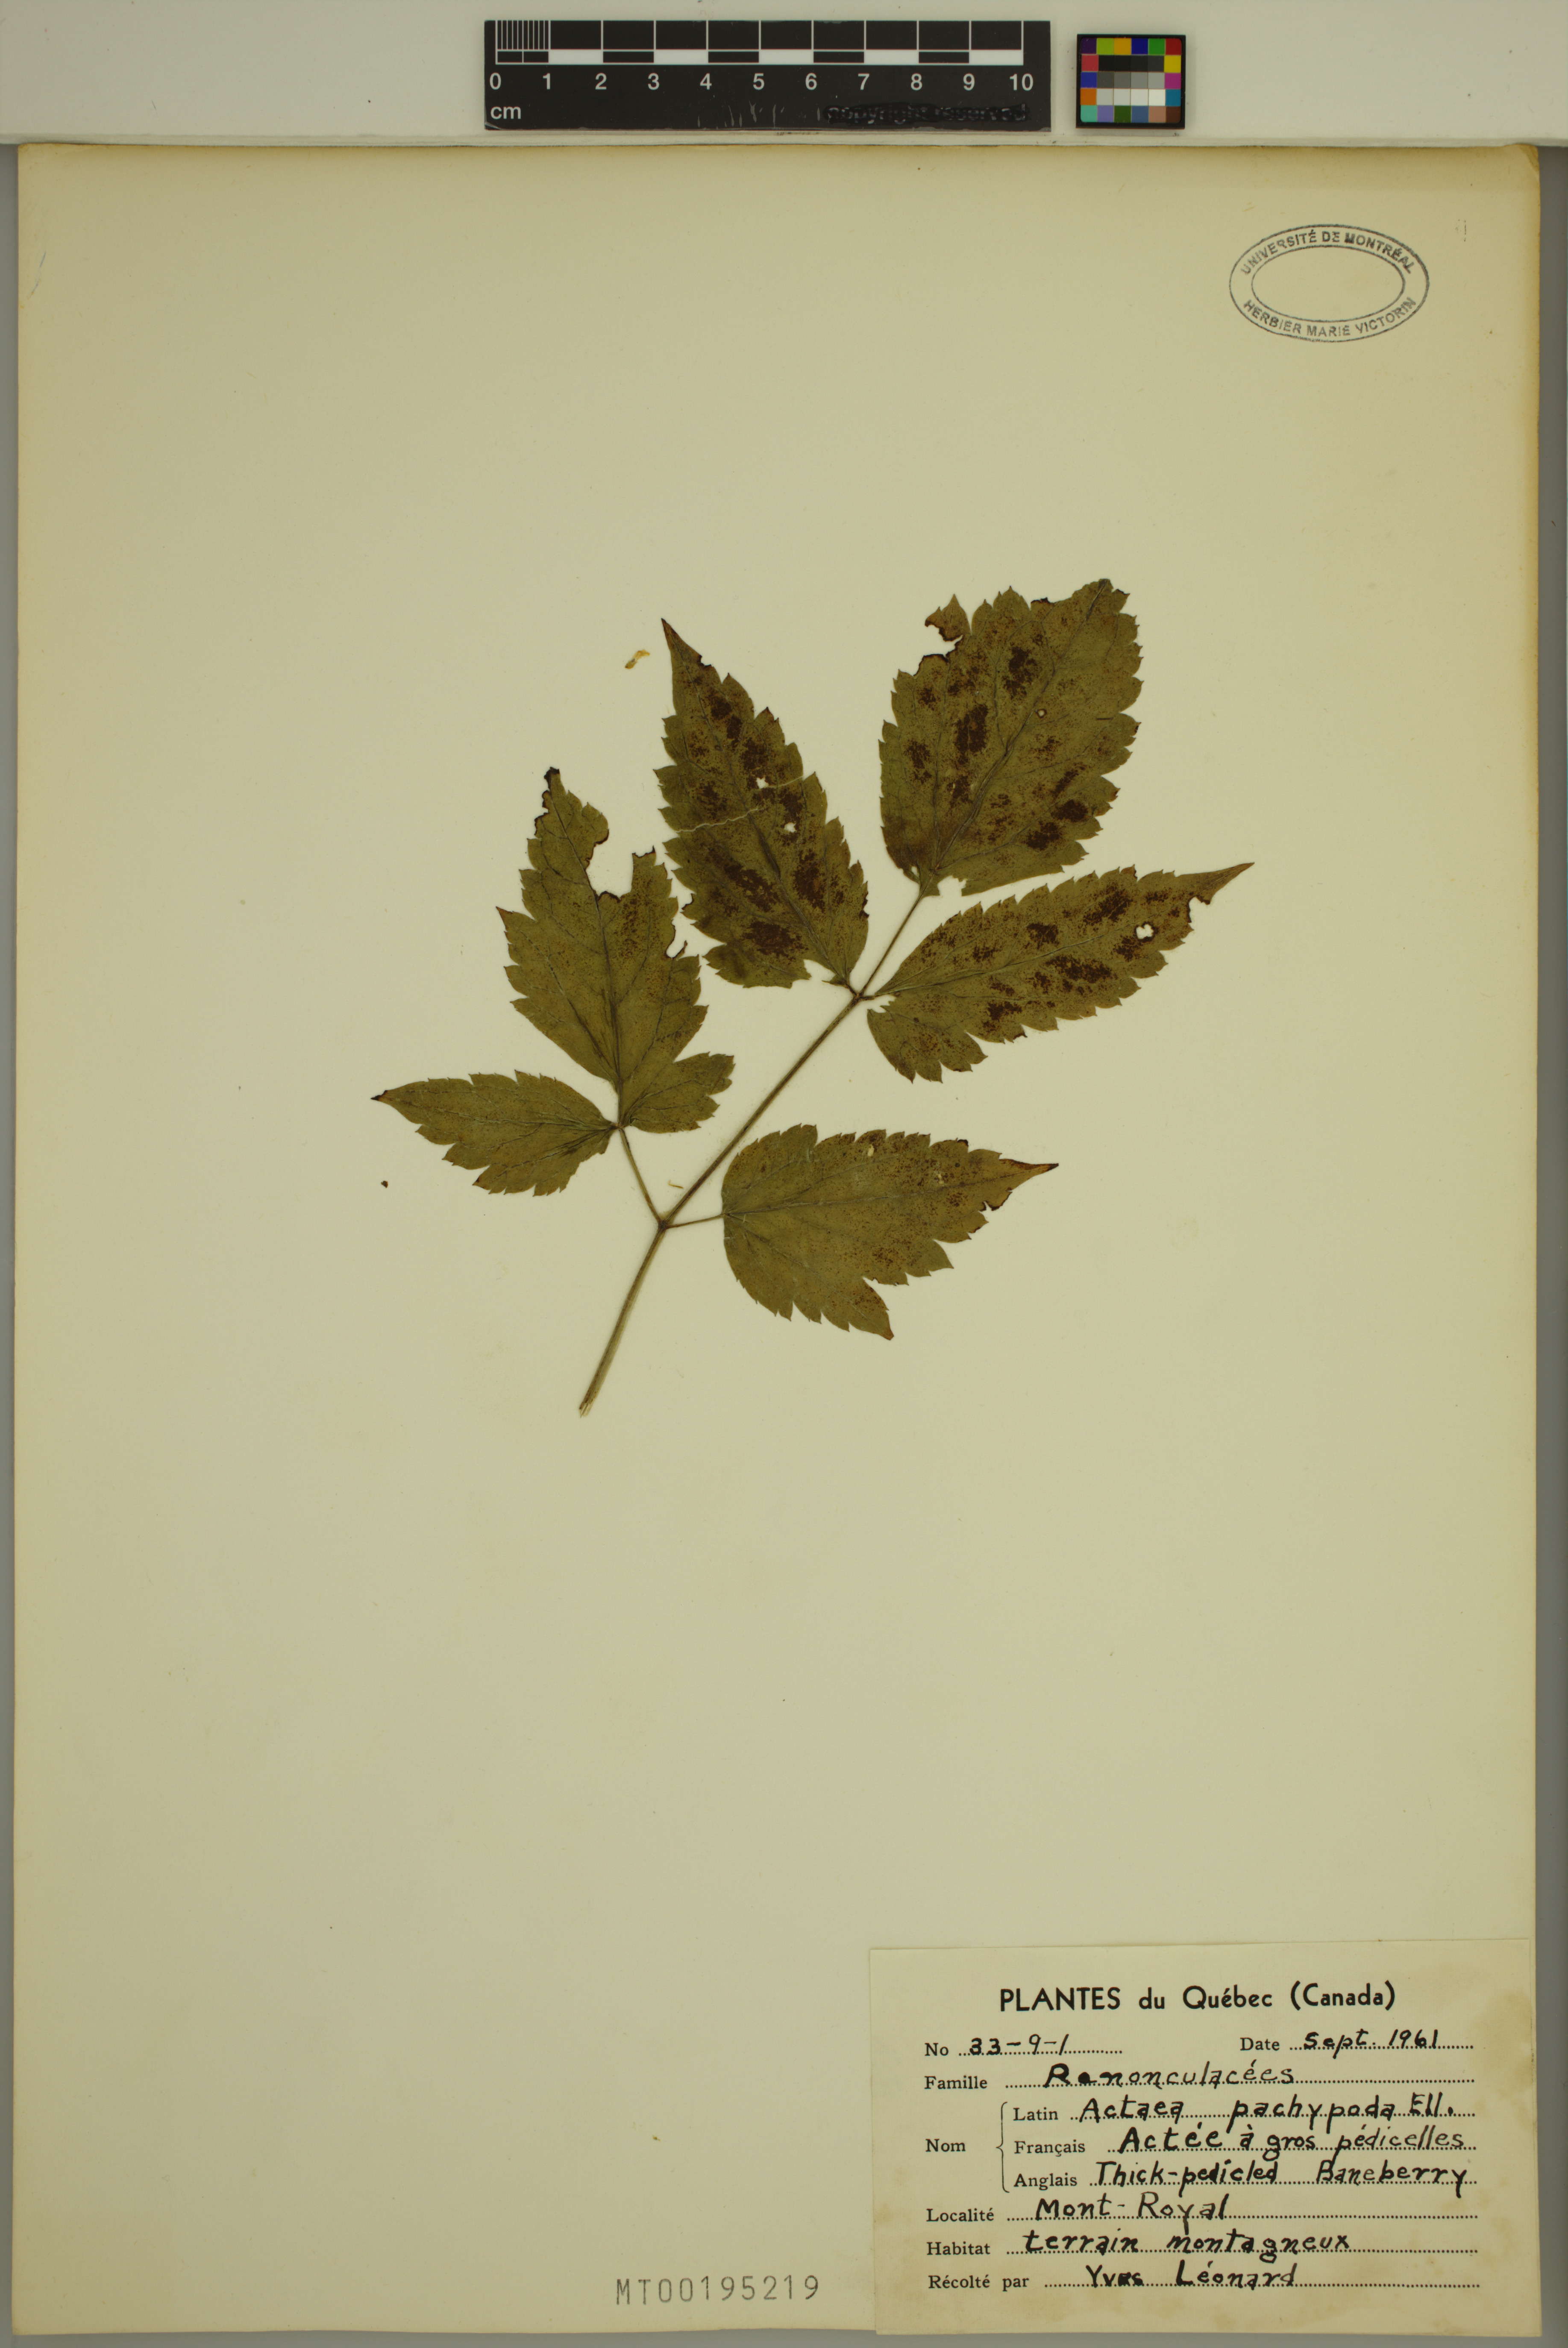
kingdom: Plantae
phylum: Tracheophyta
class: Magnoliopsida
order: Ranunculales
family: Ranunculaceae
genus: Actaea
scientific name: Actaea pachypoda
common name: Doll's-eyes
